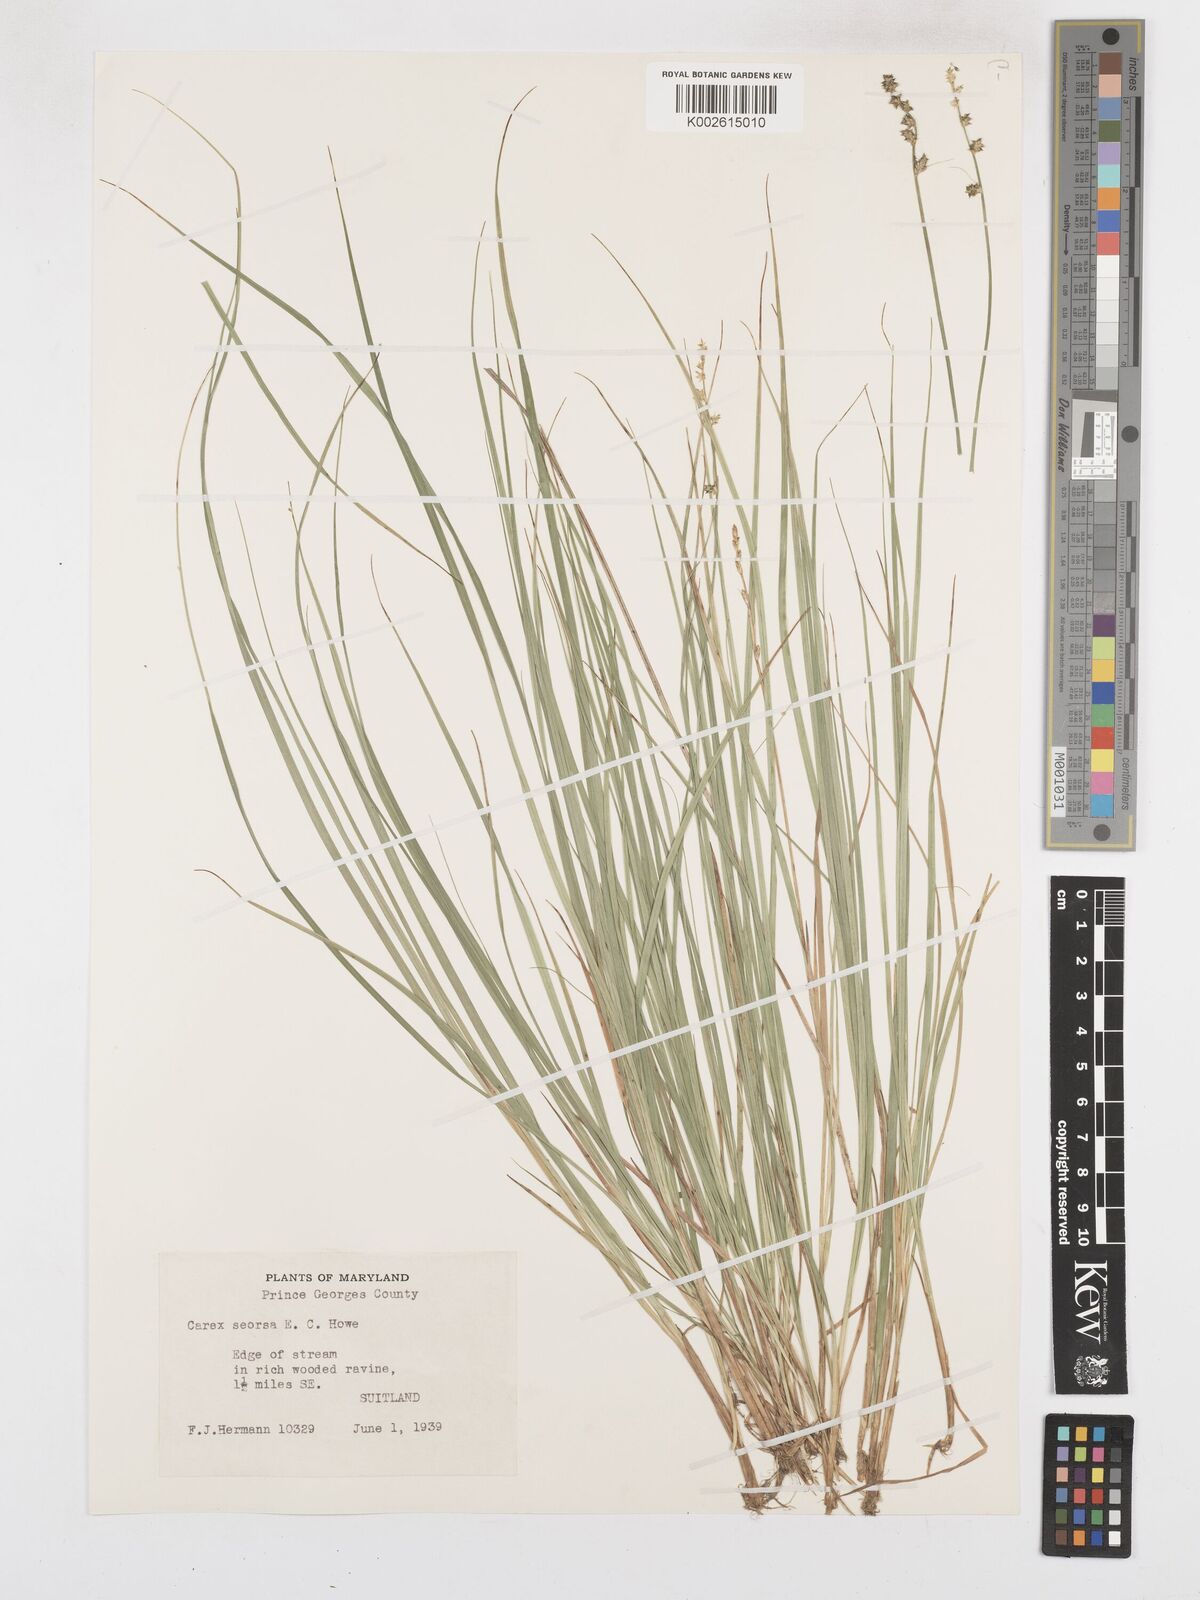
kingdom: Plantae
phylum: Tracheophyta
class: Liliopsida
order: Poales
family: Cyperaceae
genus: Carex
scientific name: Carex seorsa
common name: Swamp star sedge
